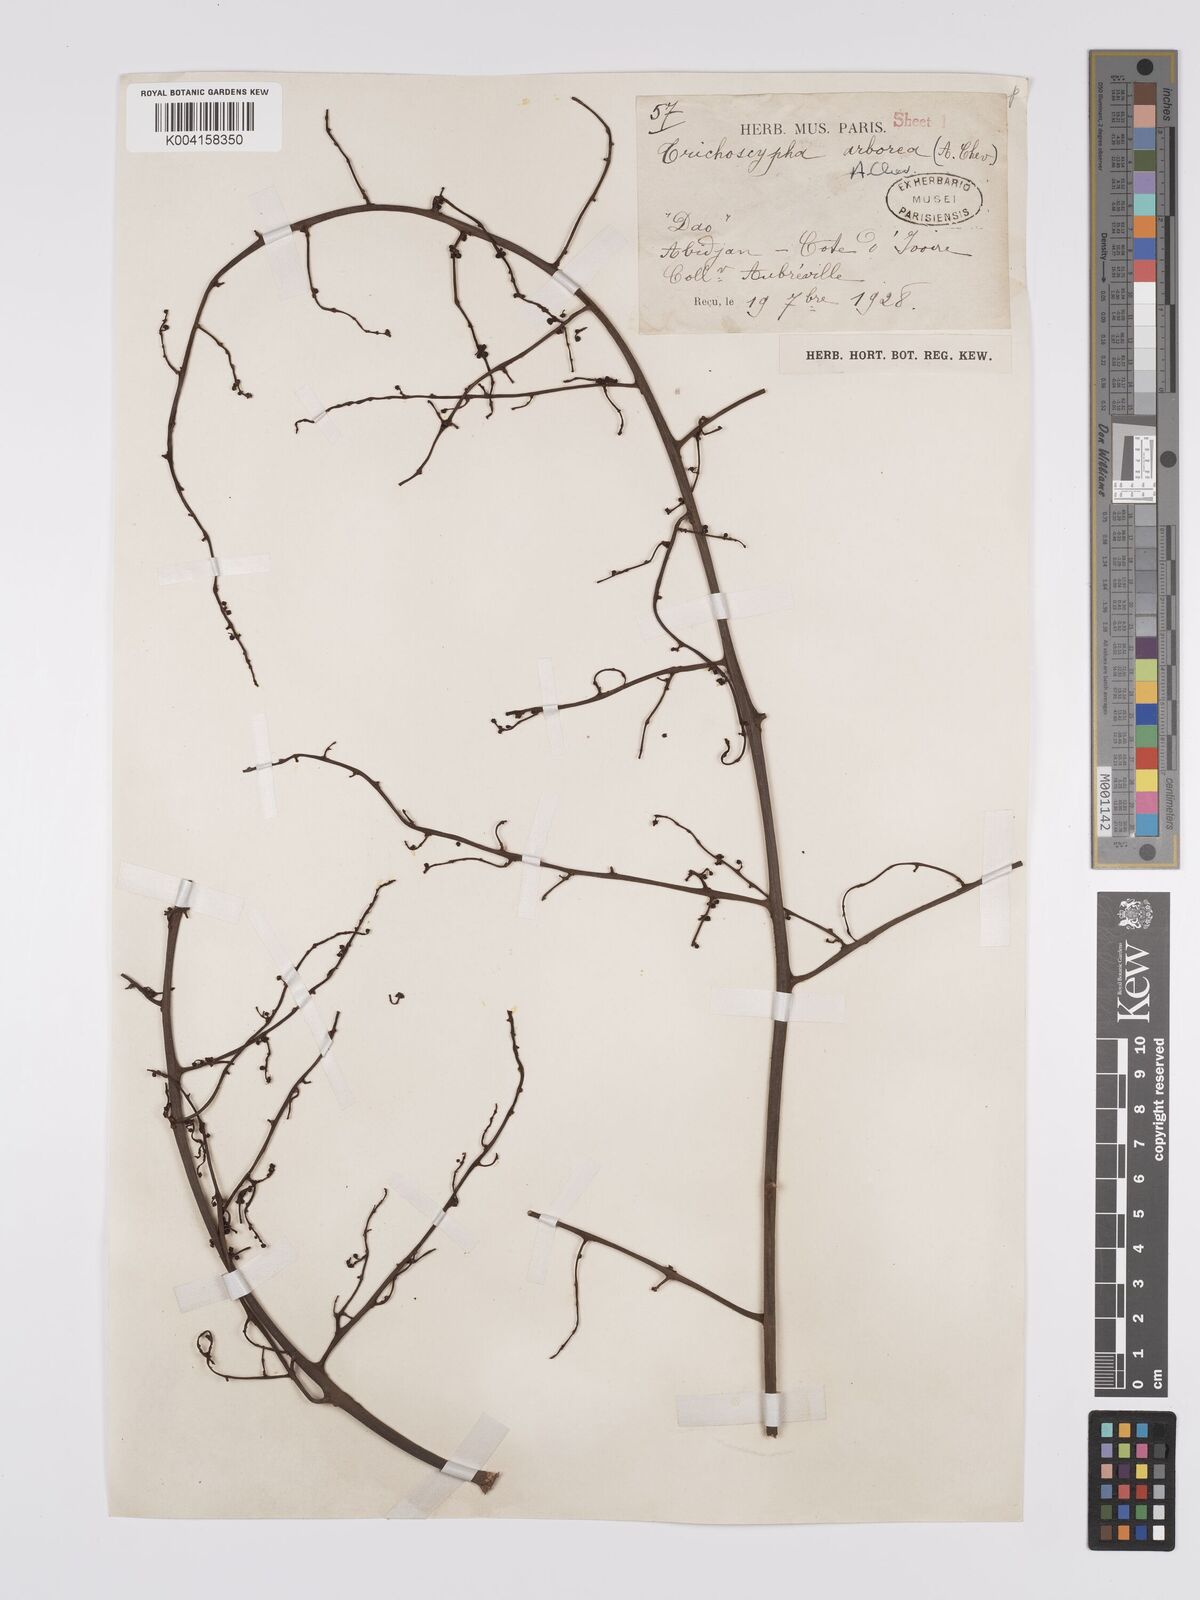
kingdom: Plantae
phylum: Tracheophyta
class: Magnoliopsida
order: Sapindales
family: Anacardiaceae
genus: Trichoscypha
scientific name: Trichoscypha arborea
